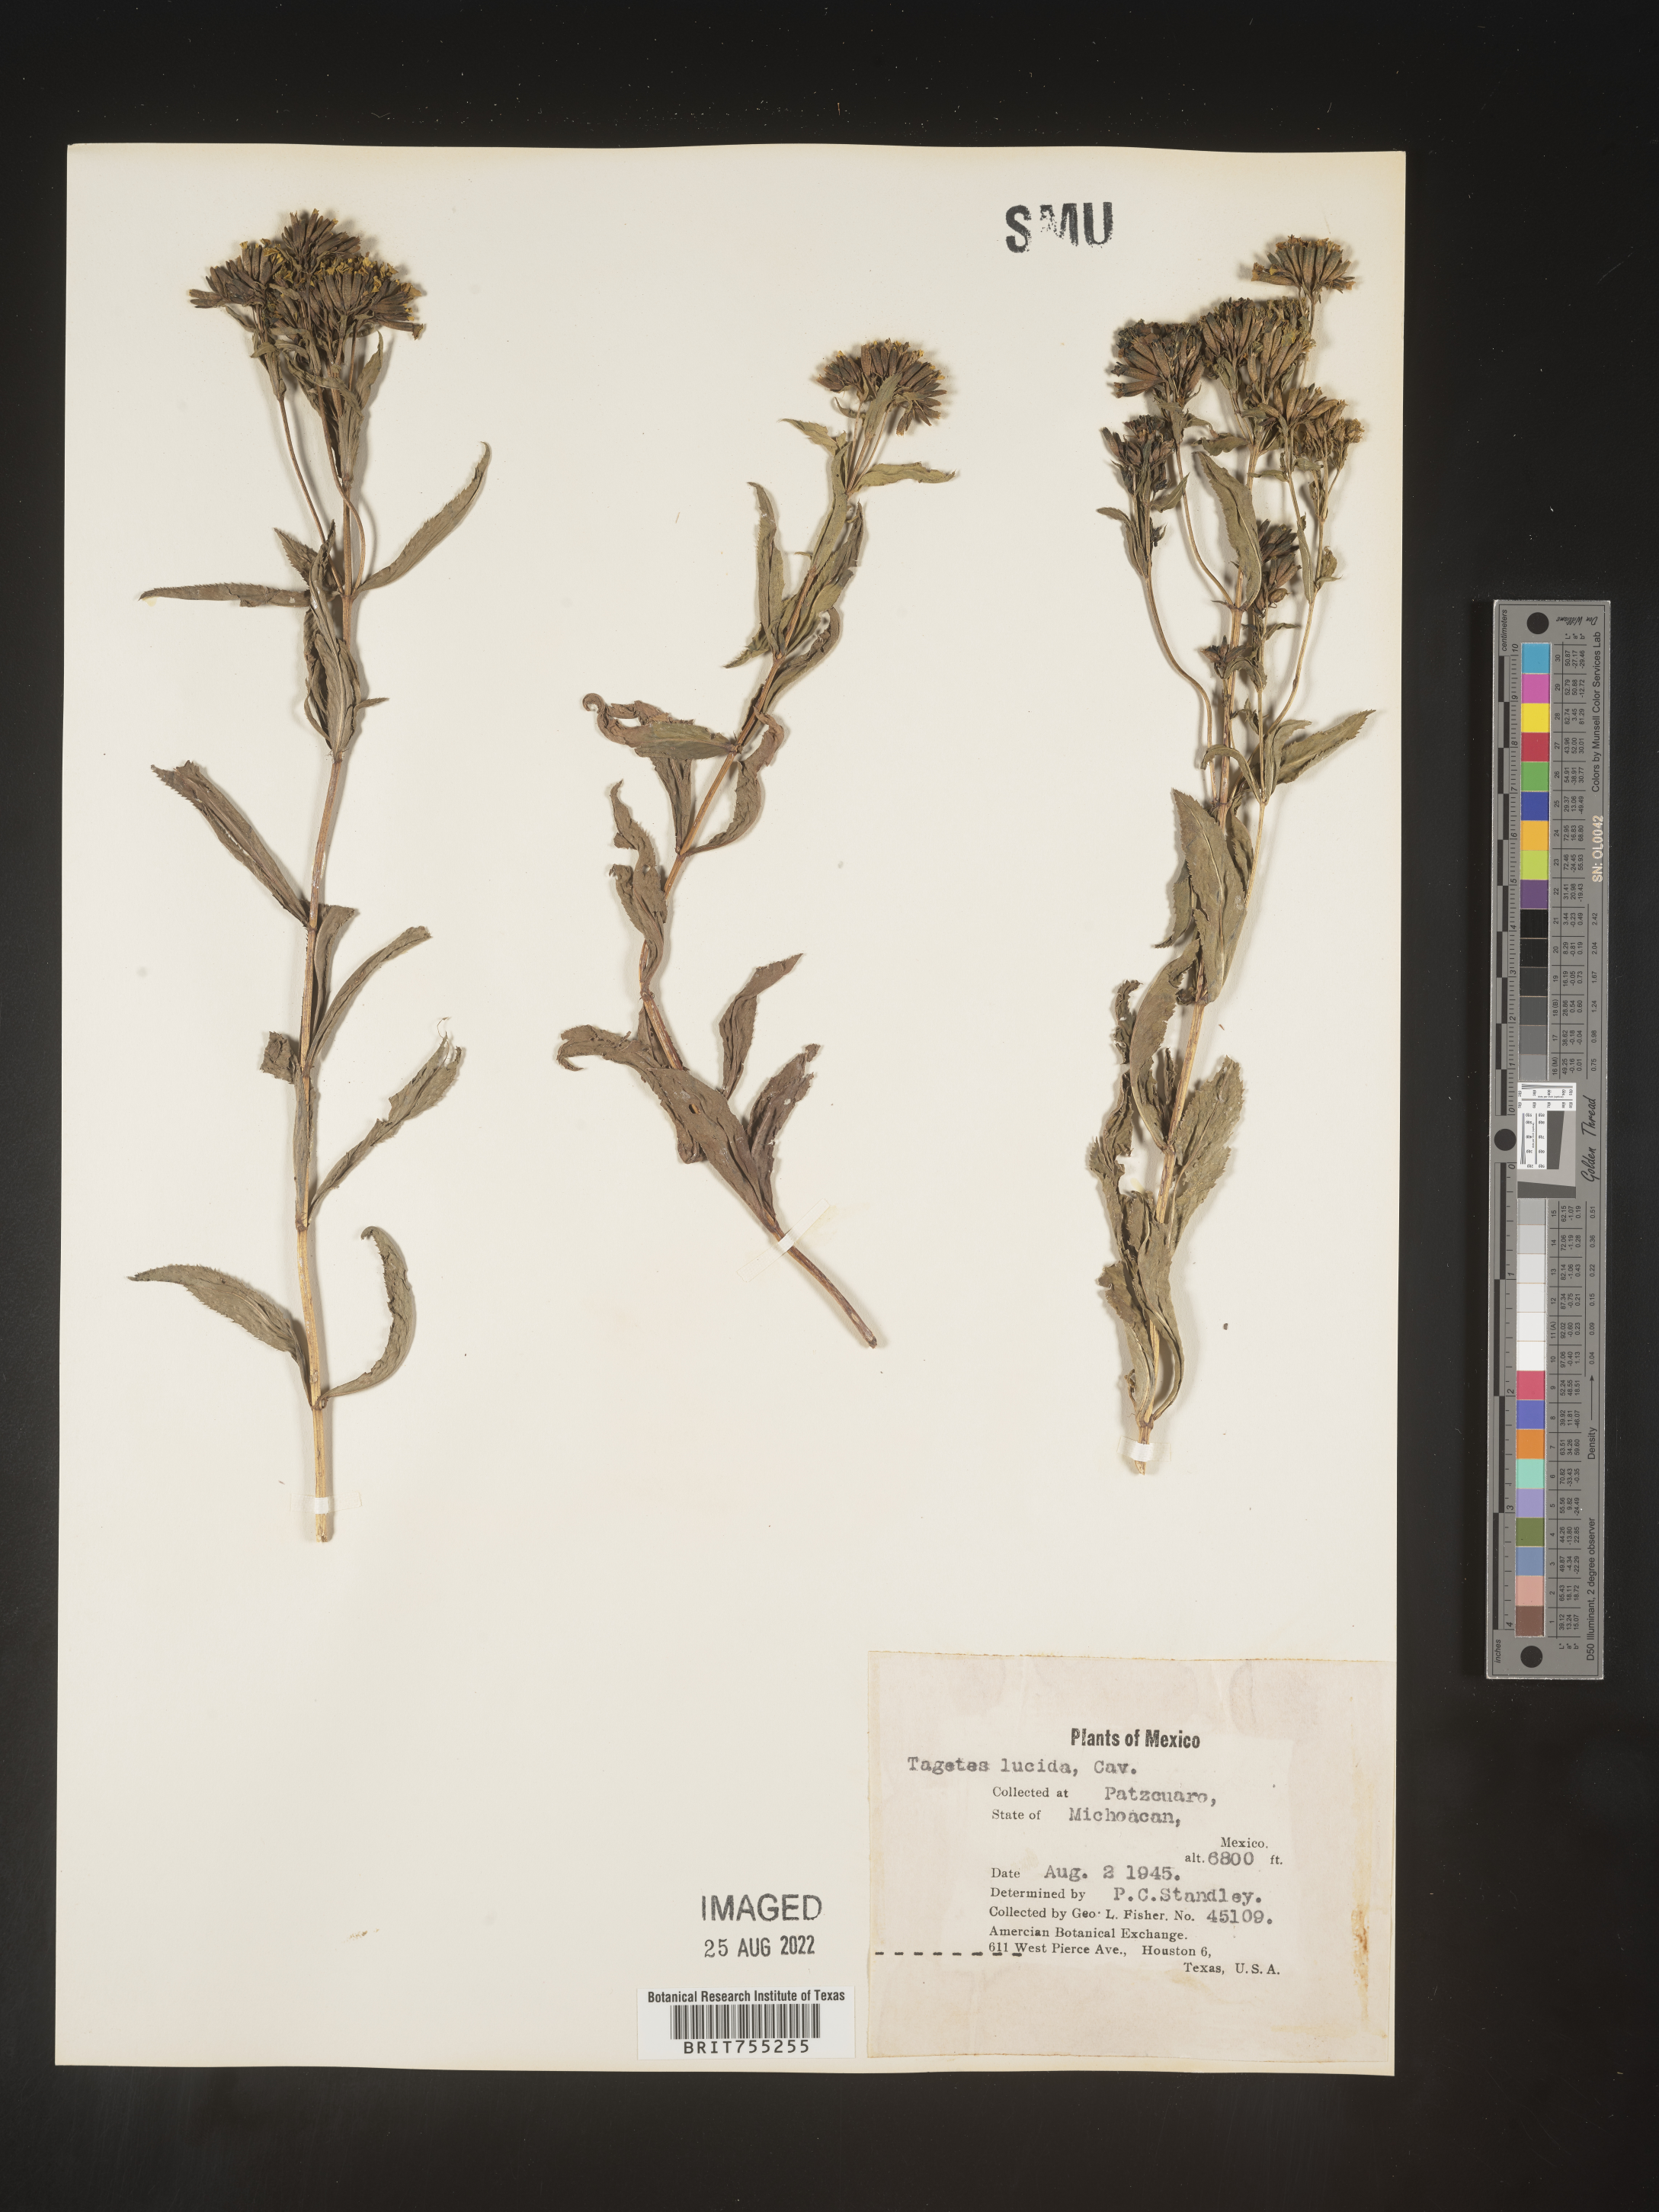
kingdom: Plantae
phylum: Tracheophyta
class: Magnoliopsida
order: Asterales
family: Asteraceae
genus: Tagetes
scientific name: Tagetes lucida
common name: Sweetscented marigold
